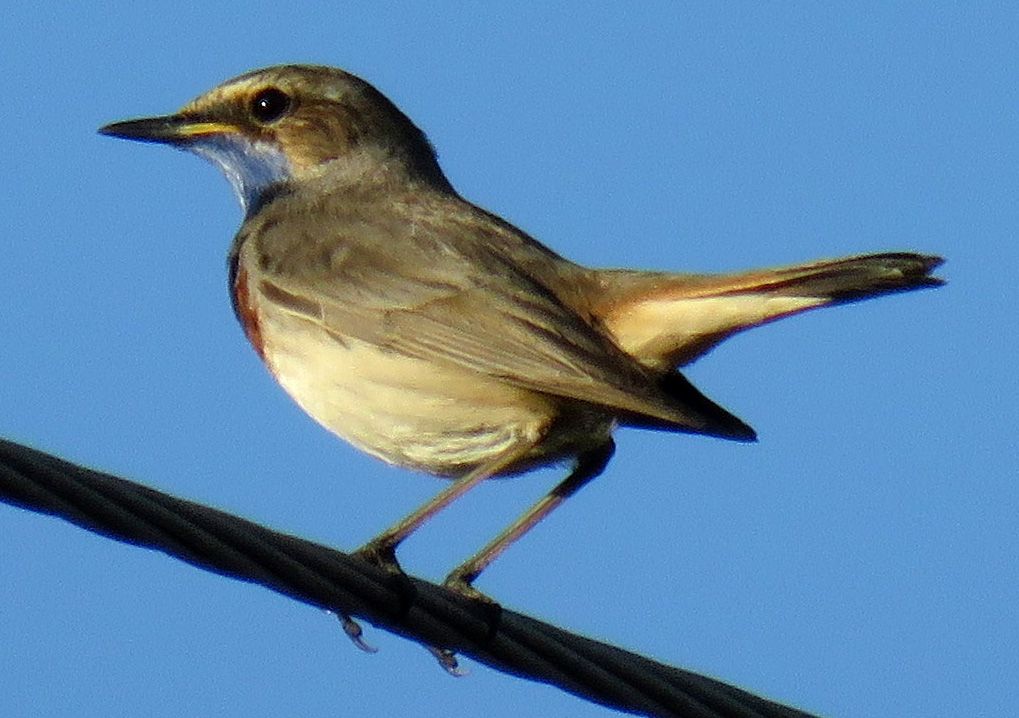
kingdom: Animalia
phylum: Chordata
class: Aves
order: Passeriformes
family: Muscicapidae
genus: Luscinia
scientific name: Luscinia svecica
